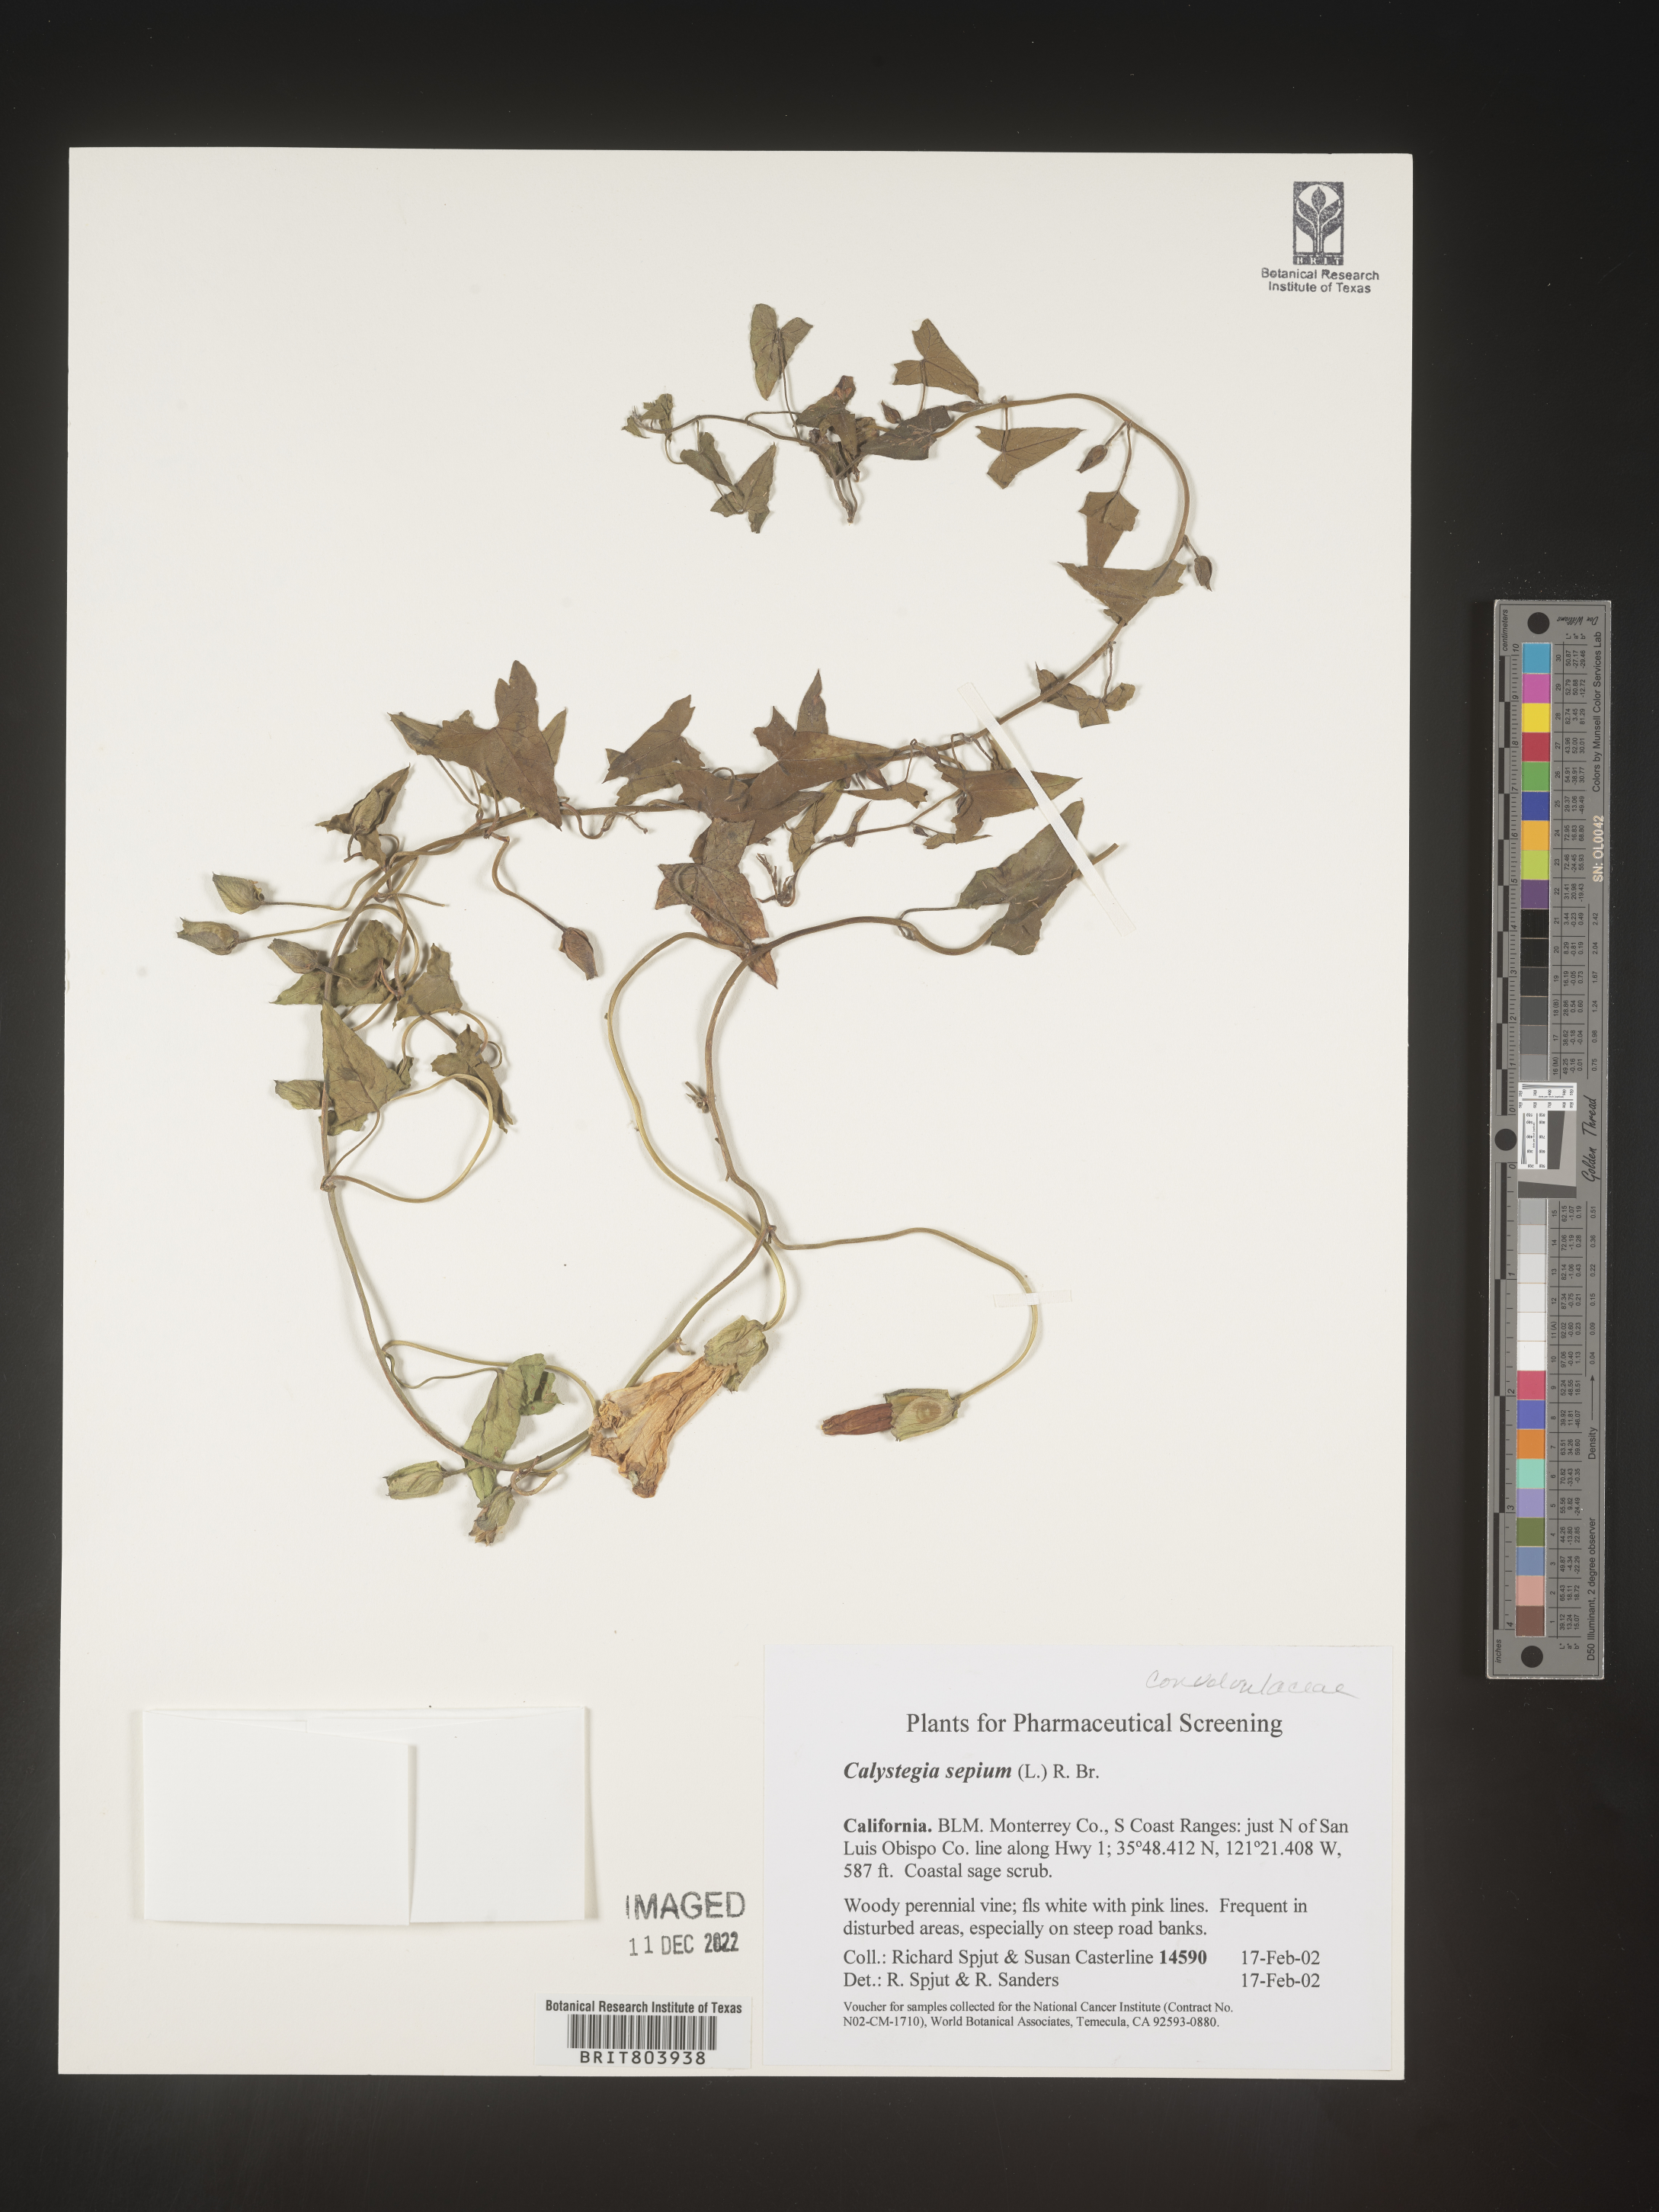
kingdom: Plantae
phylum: Tracheophyta
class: Magnoliopsida
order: Solanales
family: Convolvulaceae
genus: Calystegia
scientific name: Calystegia sepium
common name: Hedge bindweed
